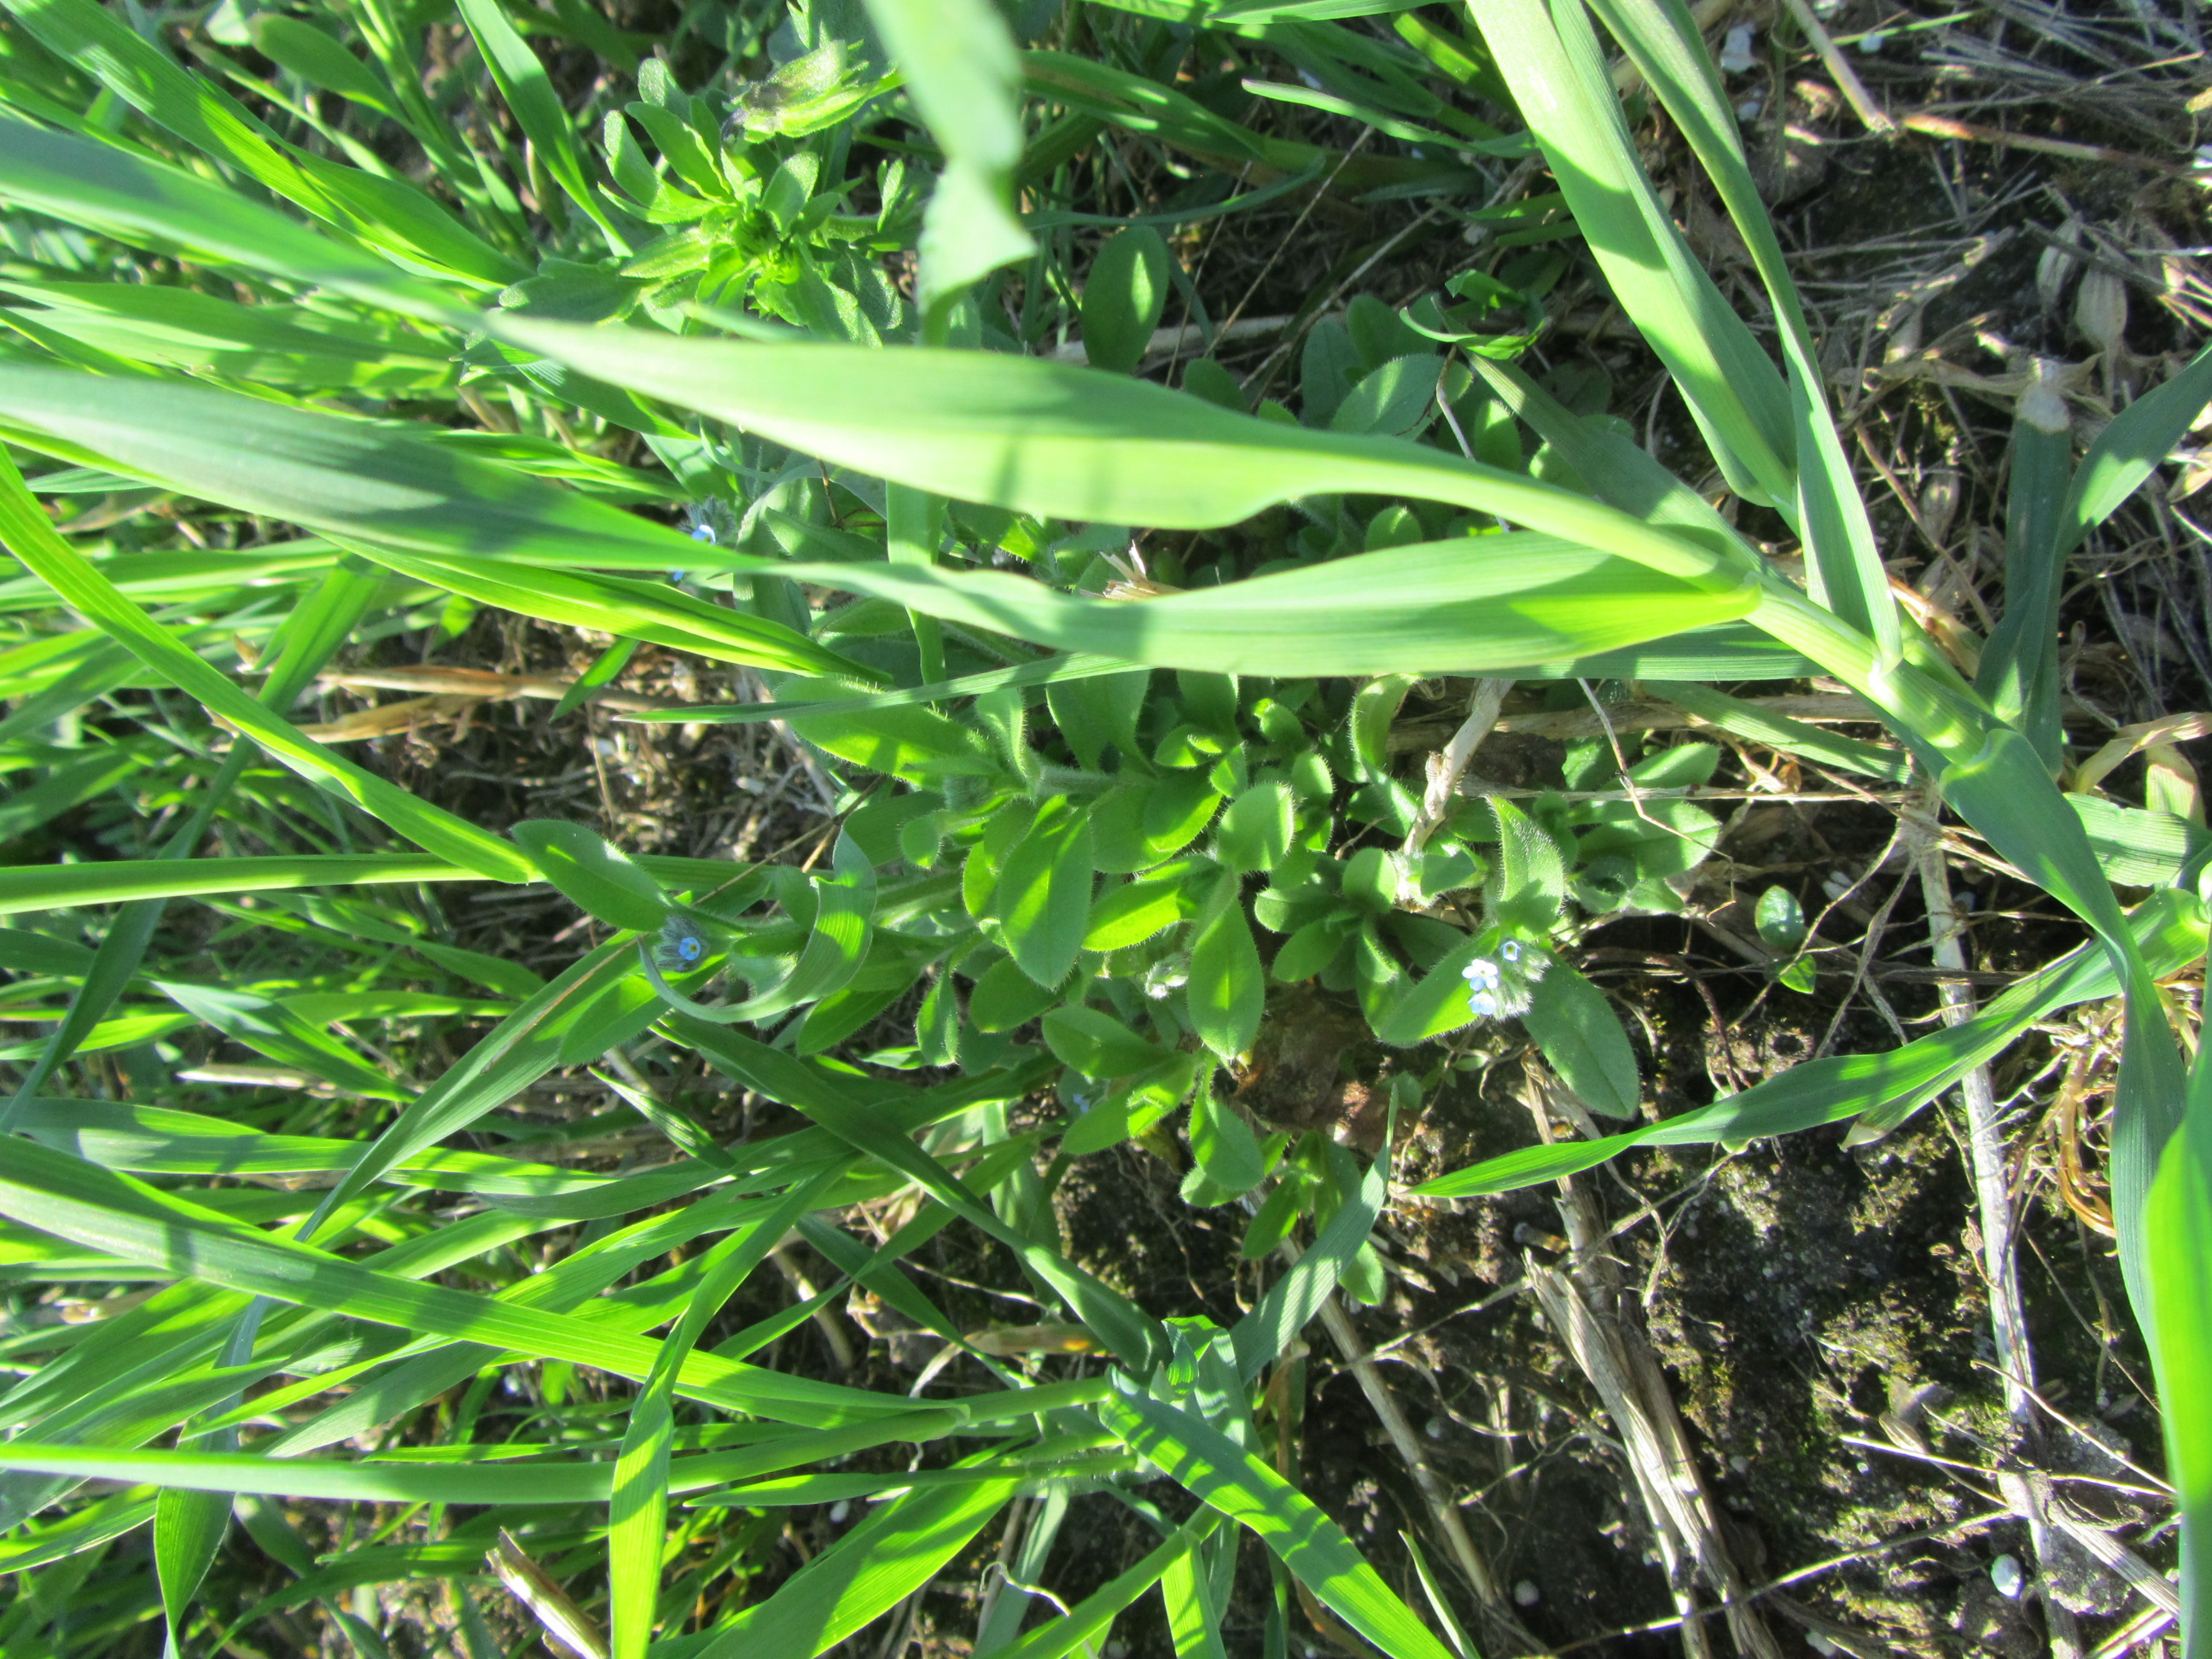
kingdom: Plantae
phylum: Tracheophyta
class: Magnoliopsida
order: Boraginales
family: Boraginaceae
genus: Myosotis
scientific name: Myosotis arvensis
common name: Field forget-me-not
